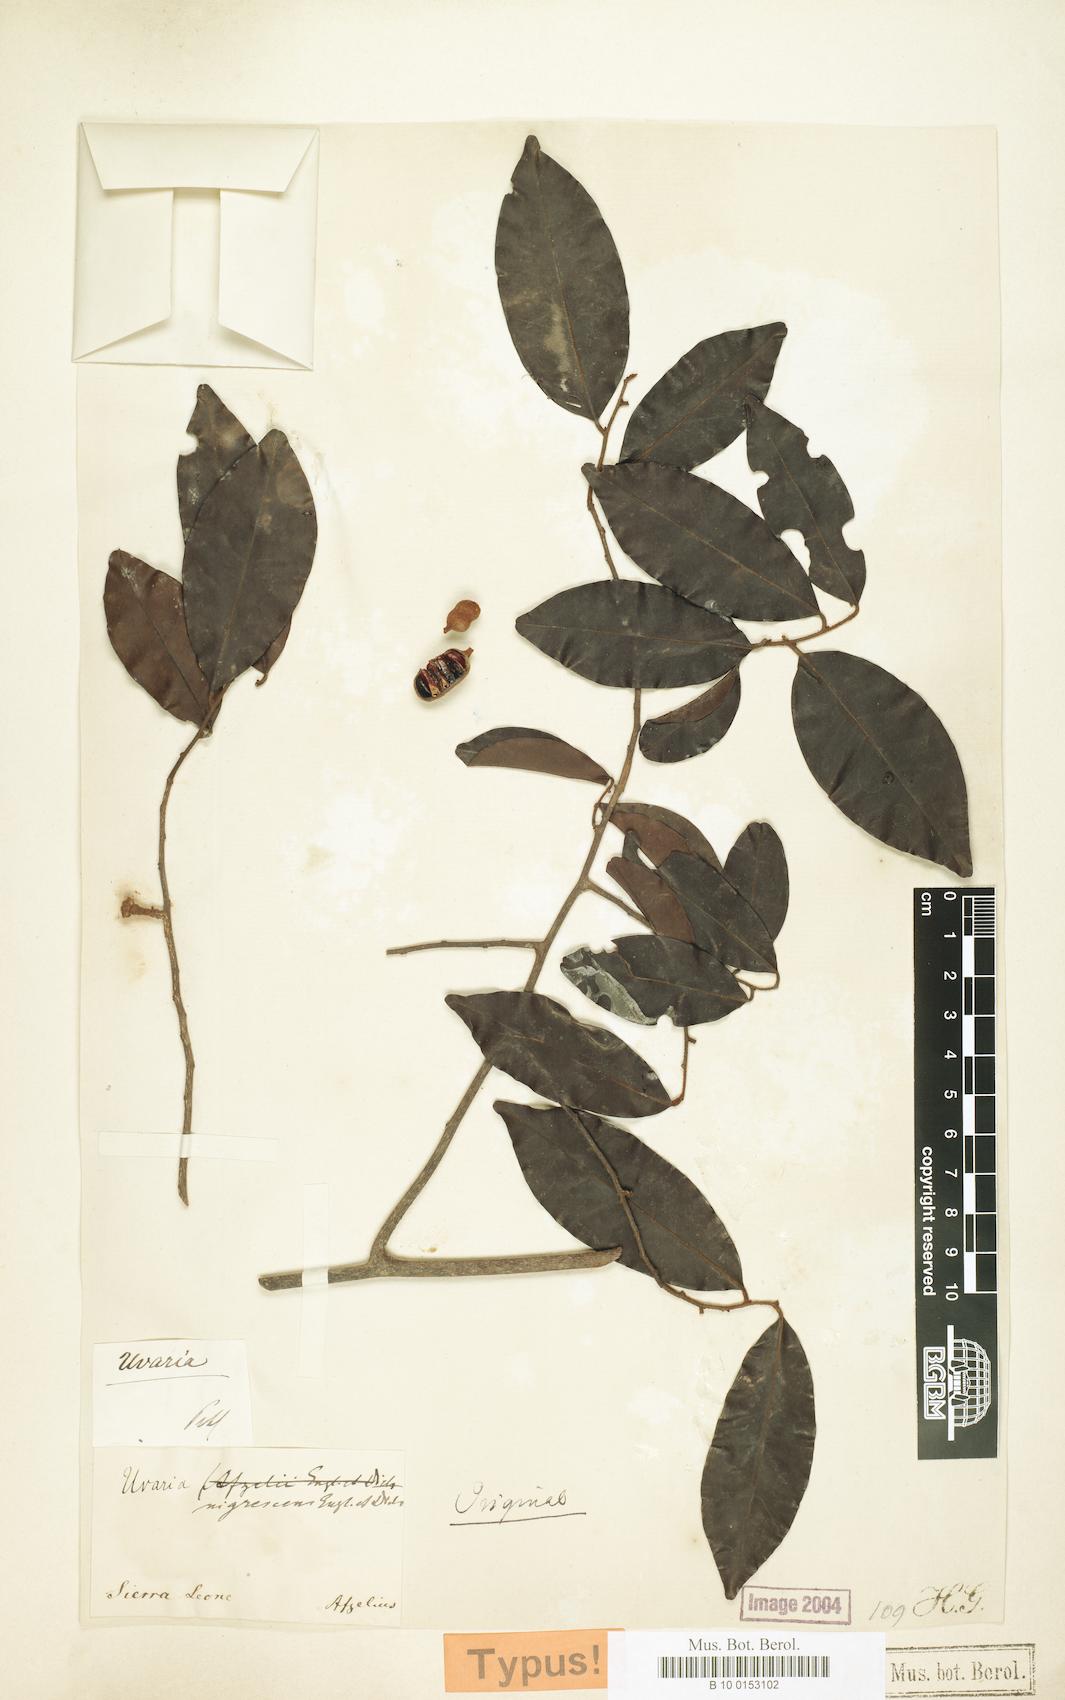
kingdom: Plantae
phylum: Tracheophyta
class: Magnoliopsida
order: Magnoliales
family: Annonaceae
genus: Uvaria
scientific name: Uvaria chamae
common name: Finger-root
